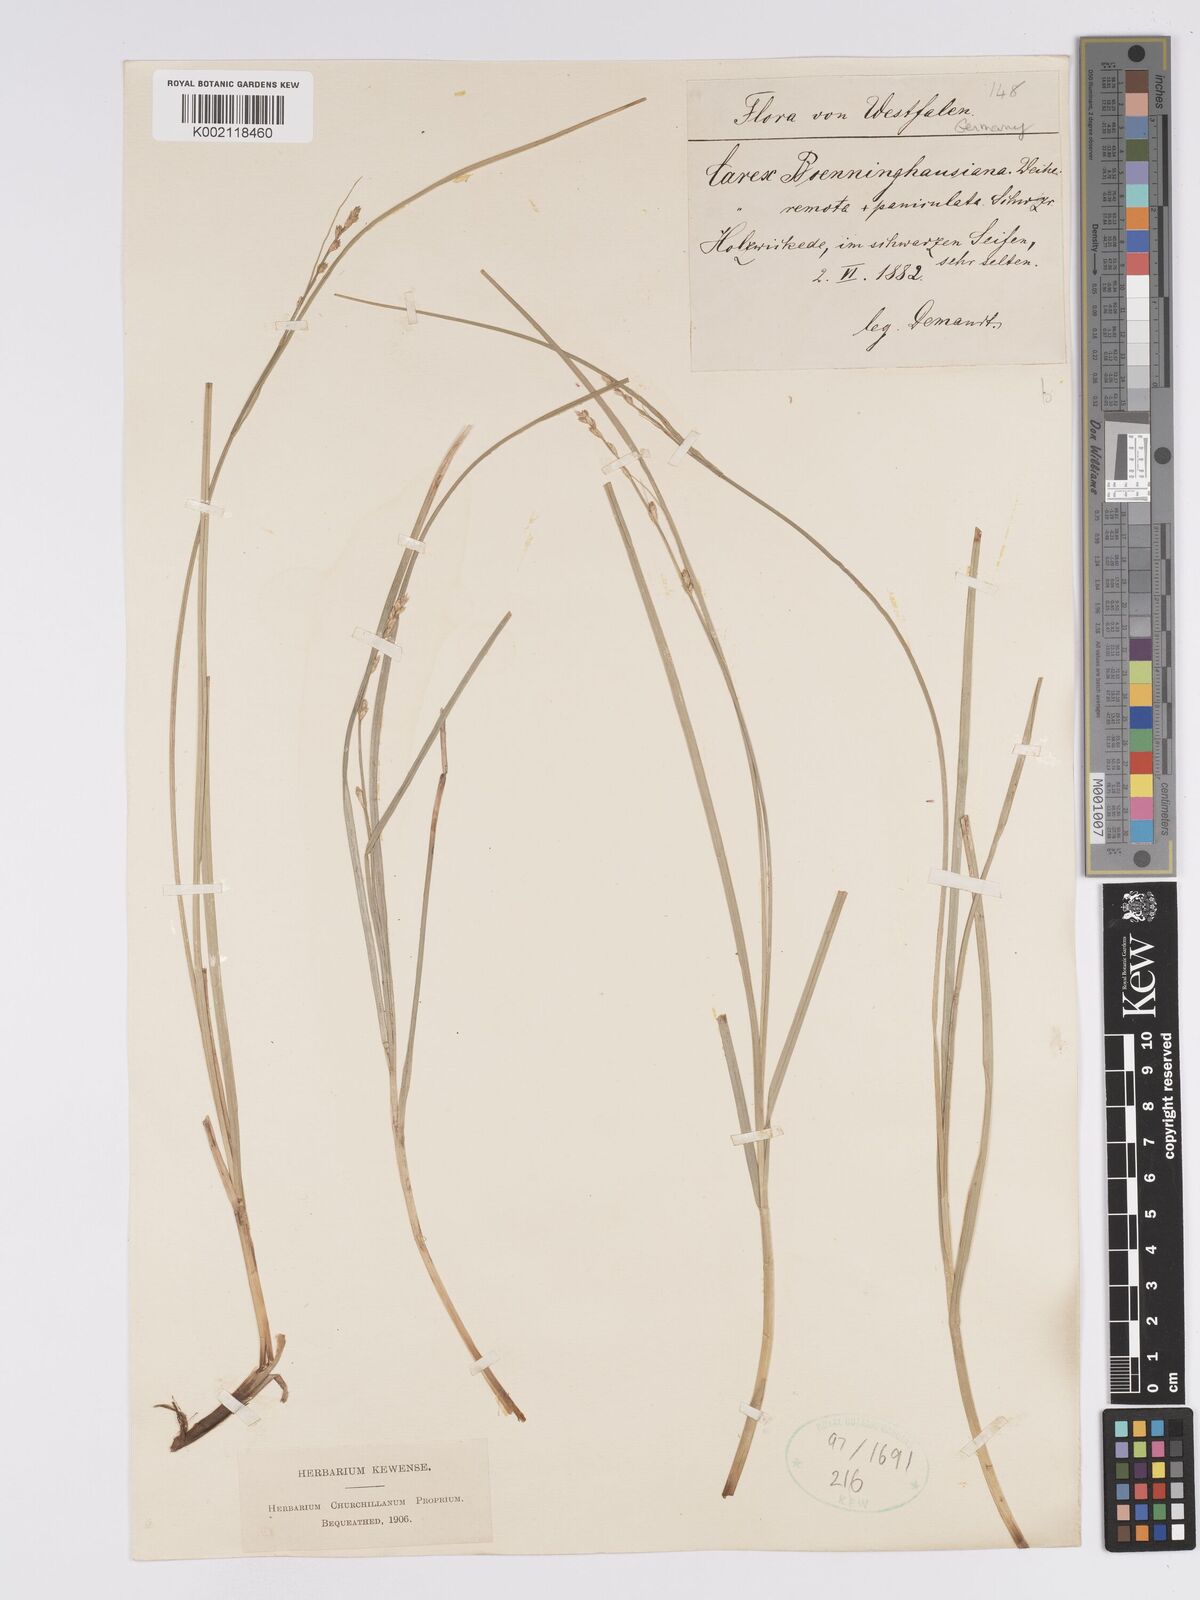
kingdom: Plantae
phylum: Tracheophyta
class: Liliopsida
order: Poales
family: Cyperaceae
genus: Carex
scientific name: Carex boenninghausiana
